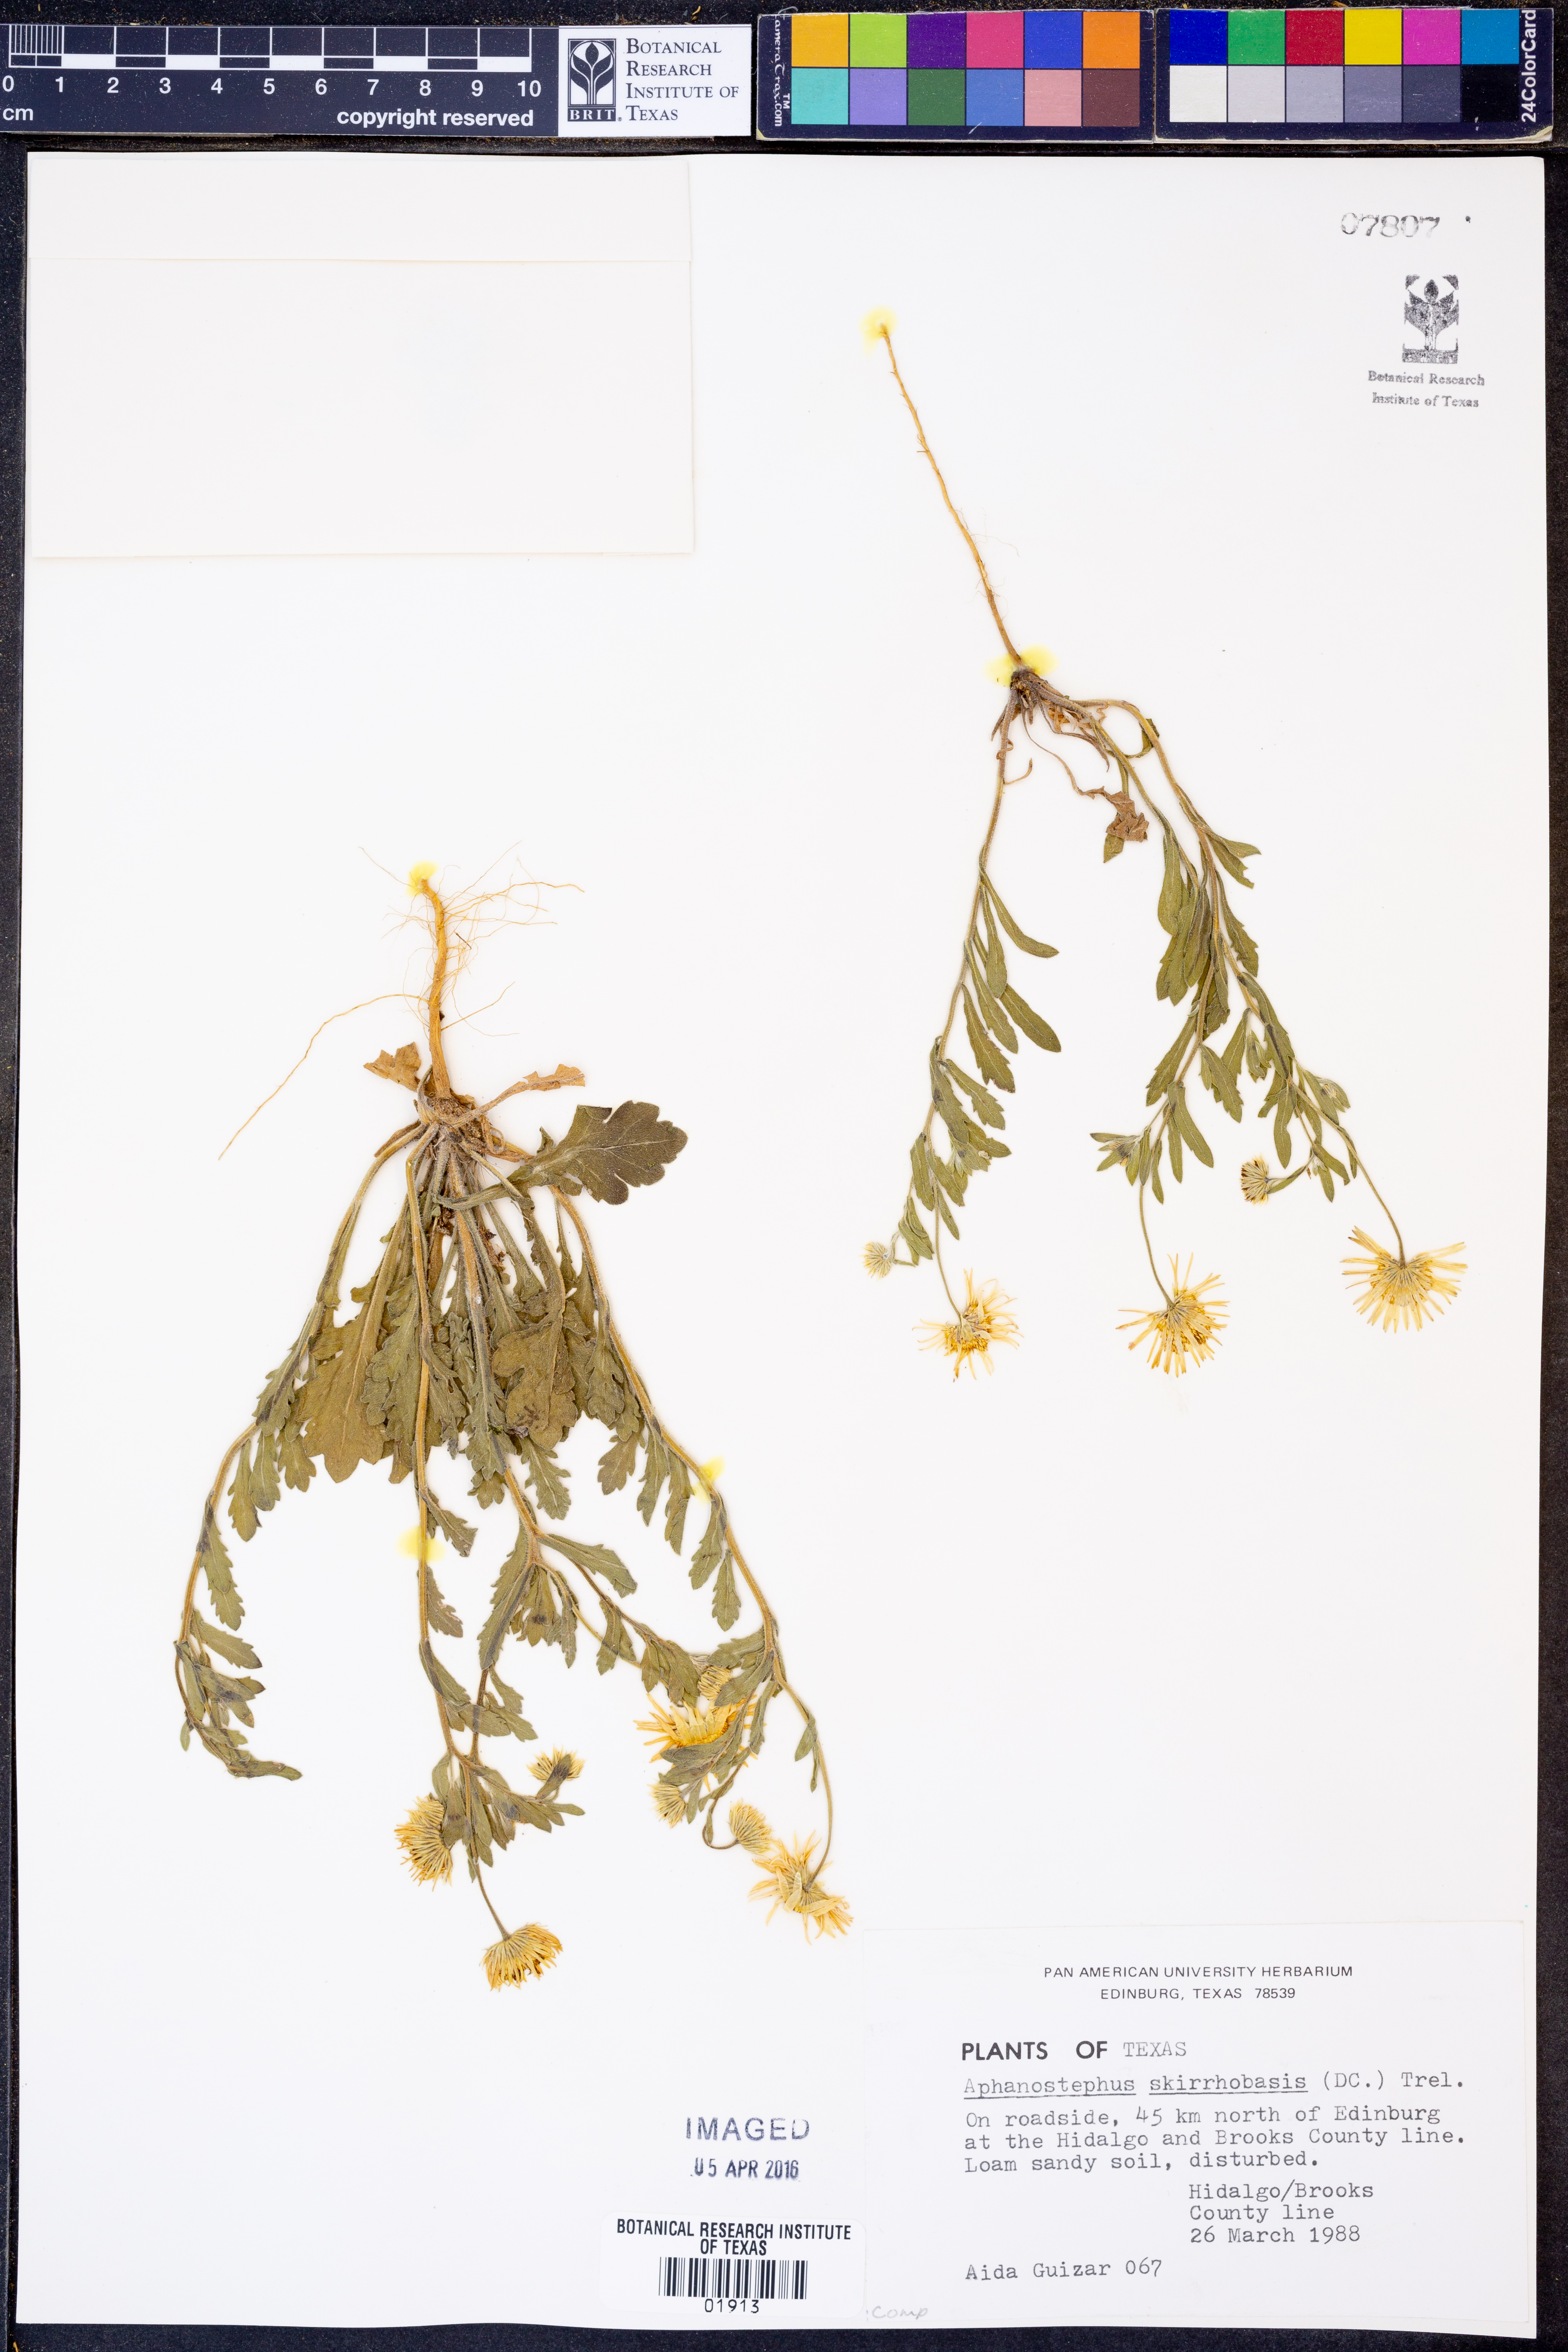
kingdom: Plantae
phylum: Tracheophyta
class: Magnoliopsida
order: Asterales
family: Asteraceae
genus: Aphanostephus
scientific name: Aphanostephus skirrhobasis
